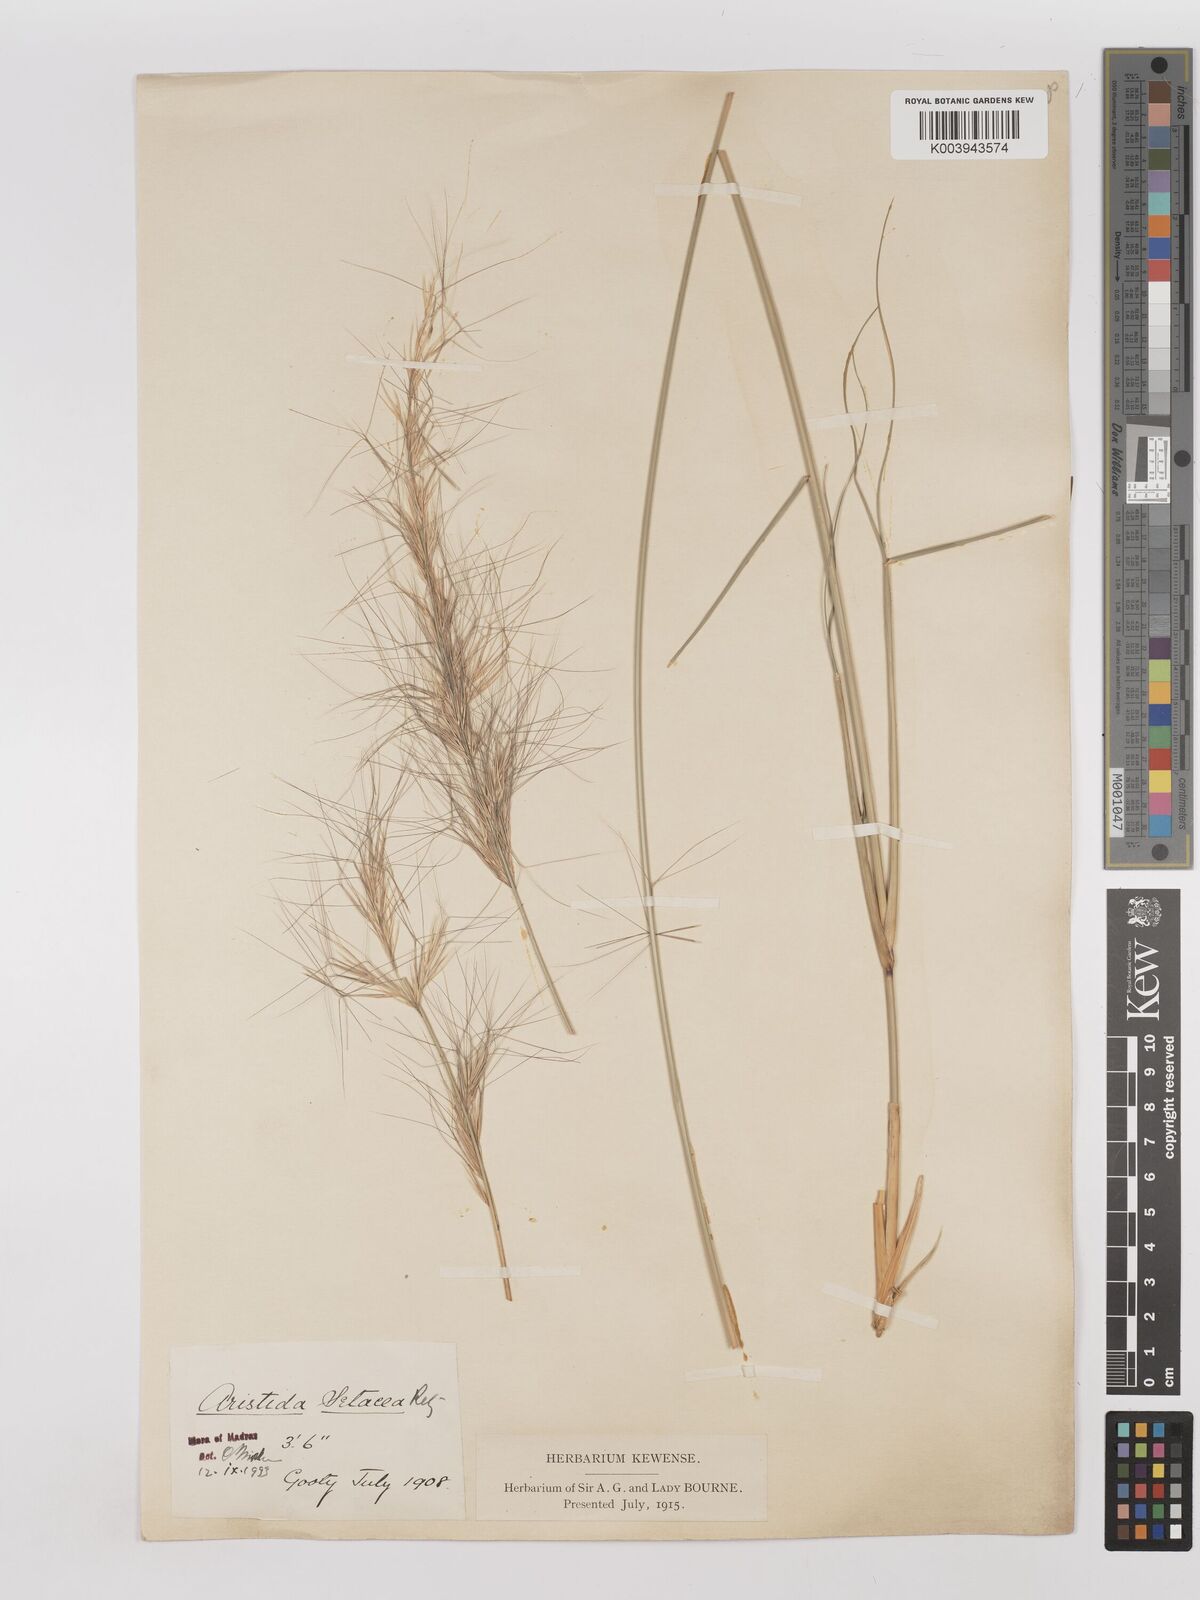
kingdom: Plantae
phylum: Tracheophyta
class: Liliopsida
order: Poales
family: Poaceae
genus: Aristida
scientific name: Aristida setacea
